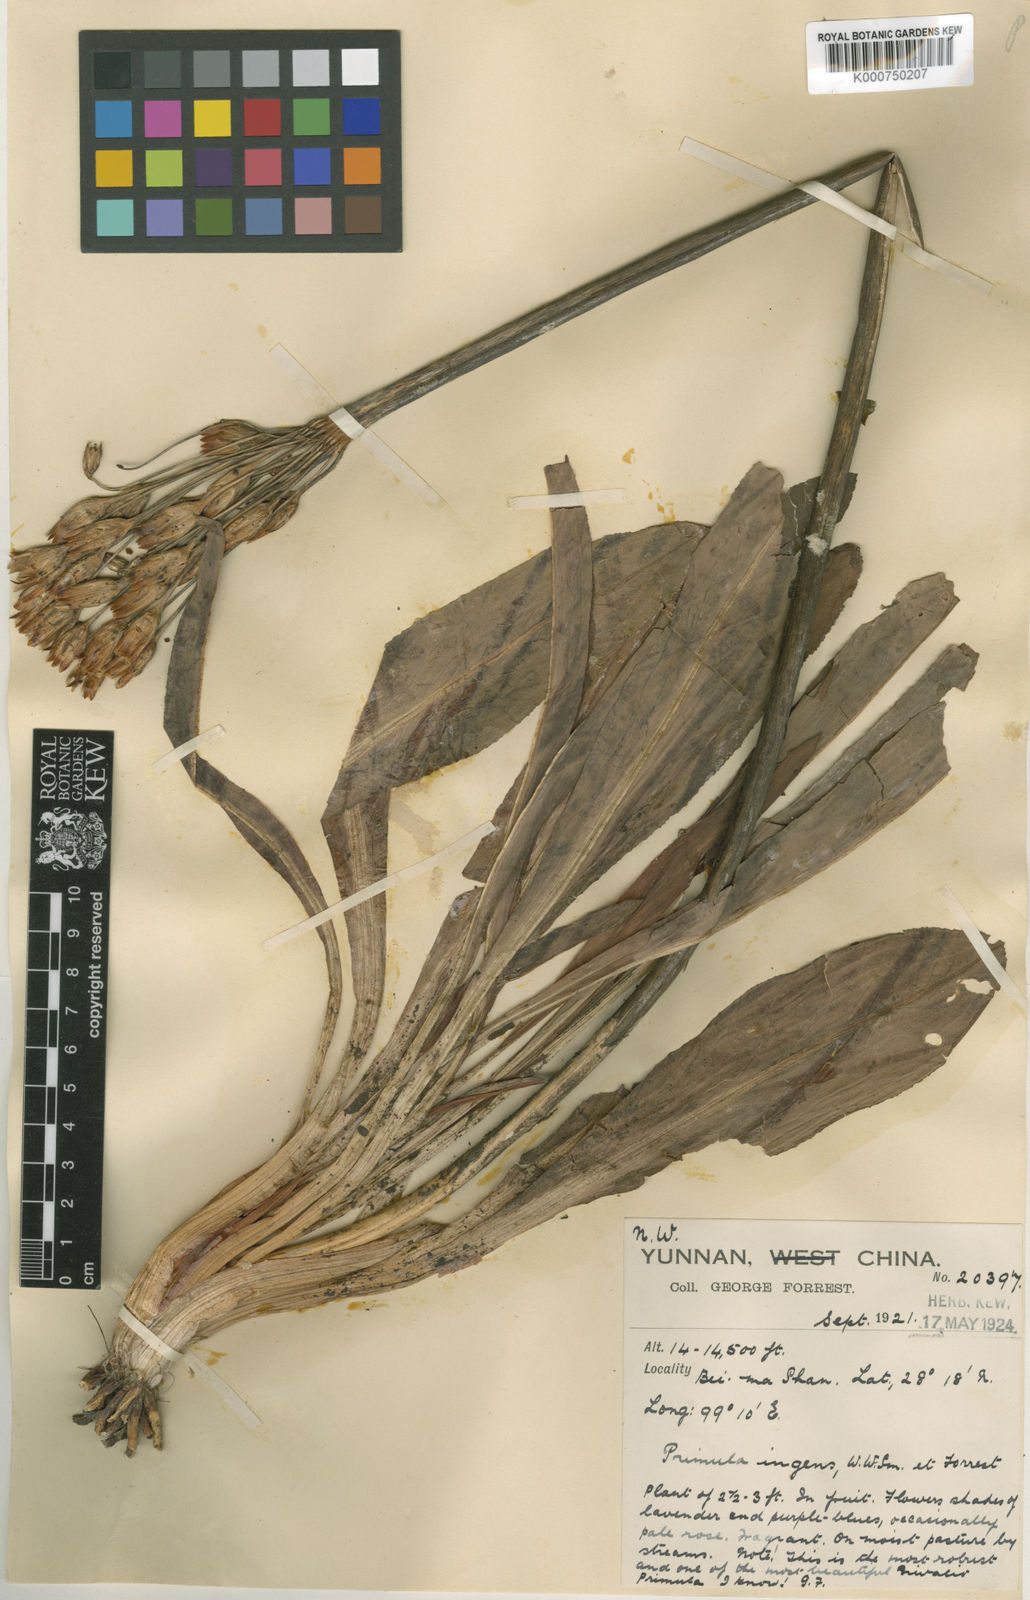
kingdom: Plantae
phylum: Tracheophyta
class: Magnoliopsida
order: Ericales
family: Primulaceae
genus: Primula
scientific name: Primula chionantha
